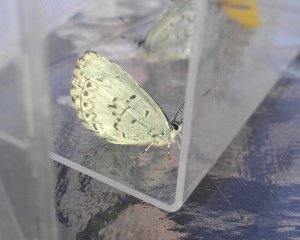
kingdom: Animalia
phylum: Arthropoda
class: Insecta
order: Lepidoptera
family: Lycaenidae
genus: Cyaniris
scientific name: Cyaniris neglecta
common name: Summer Azure
